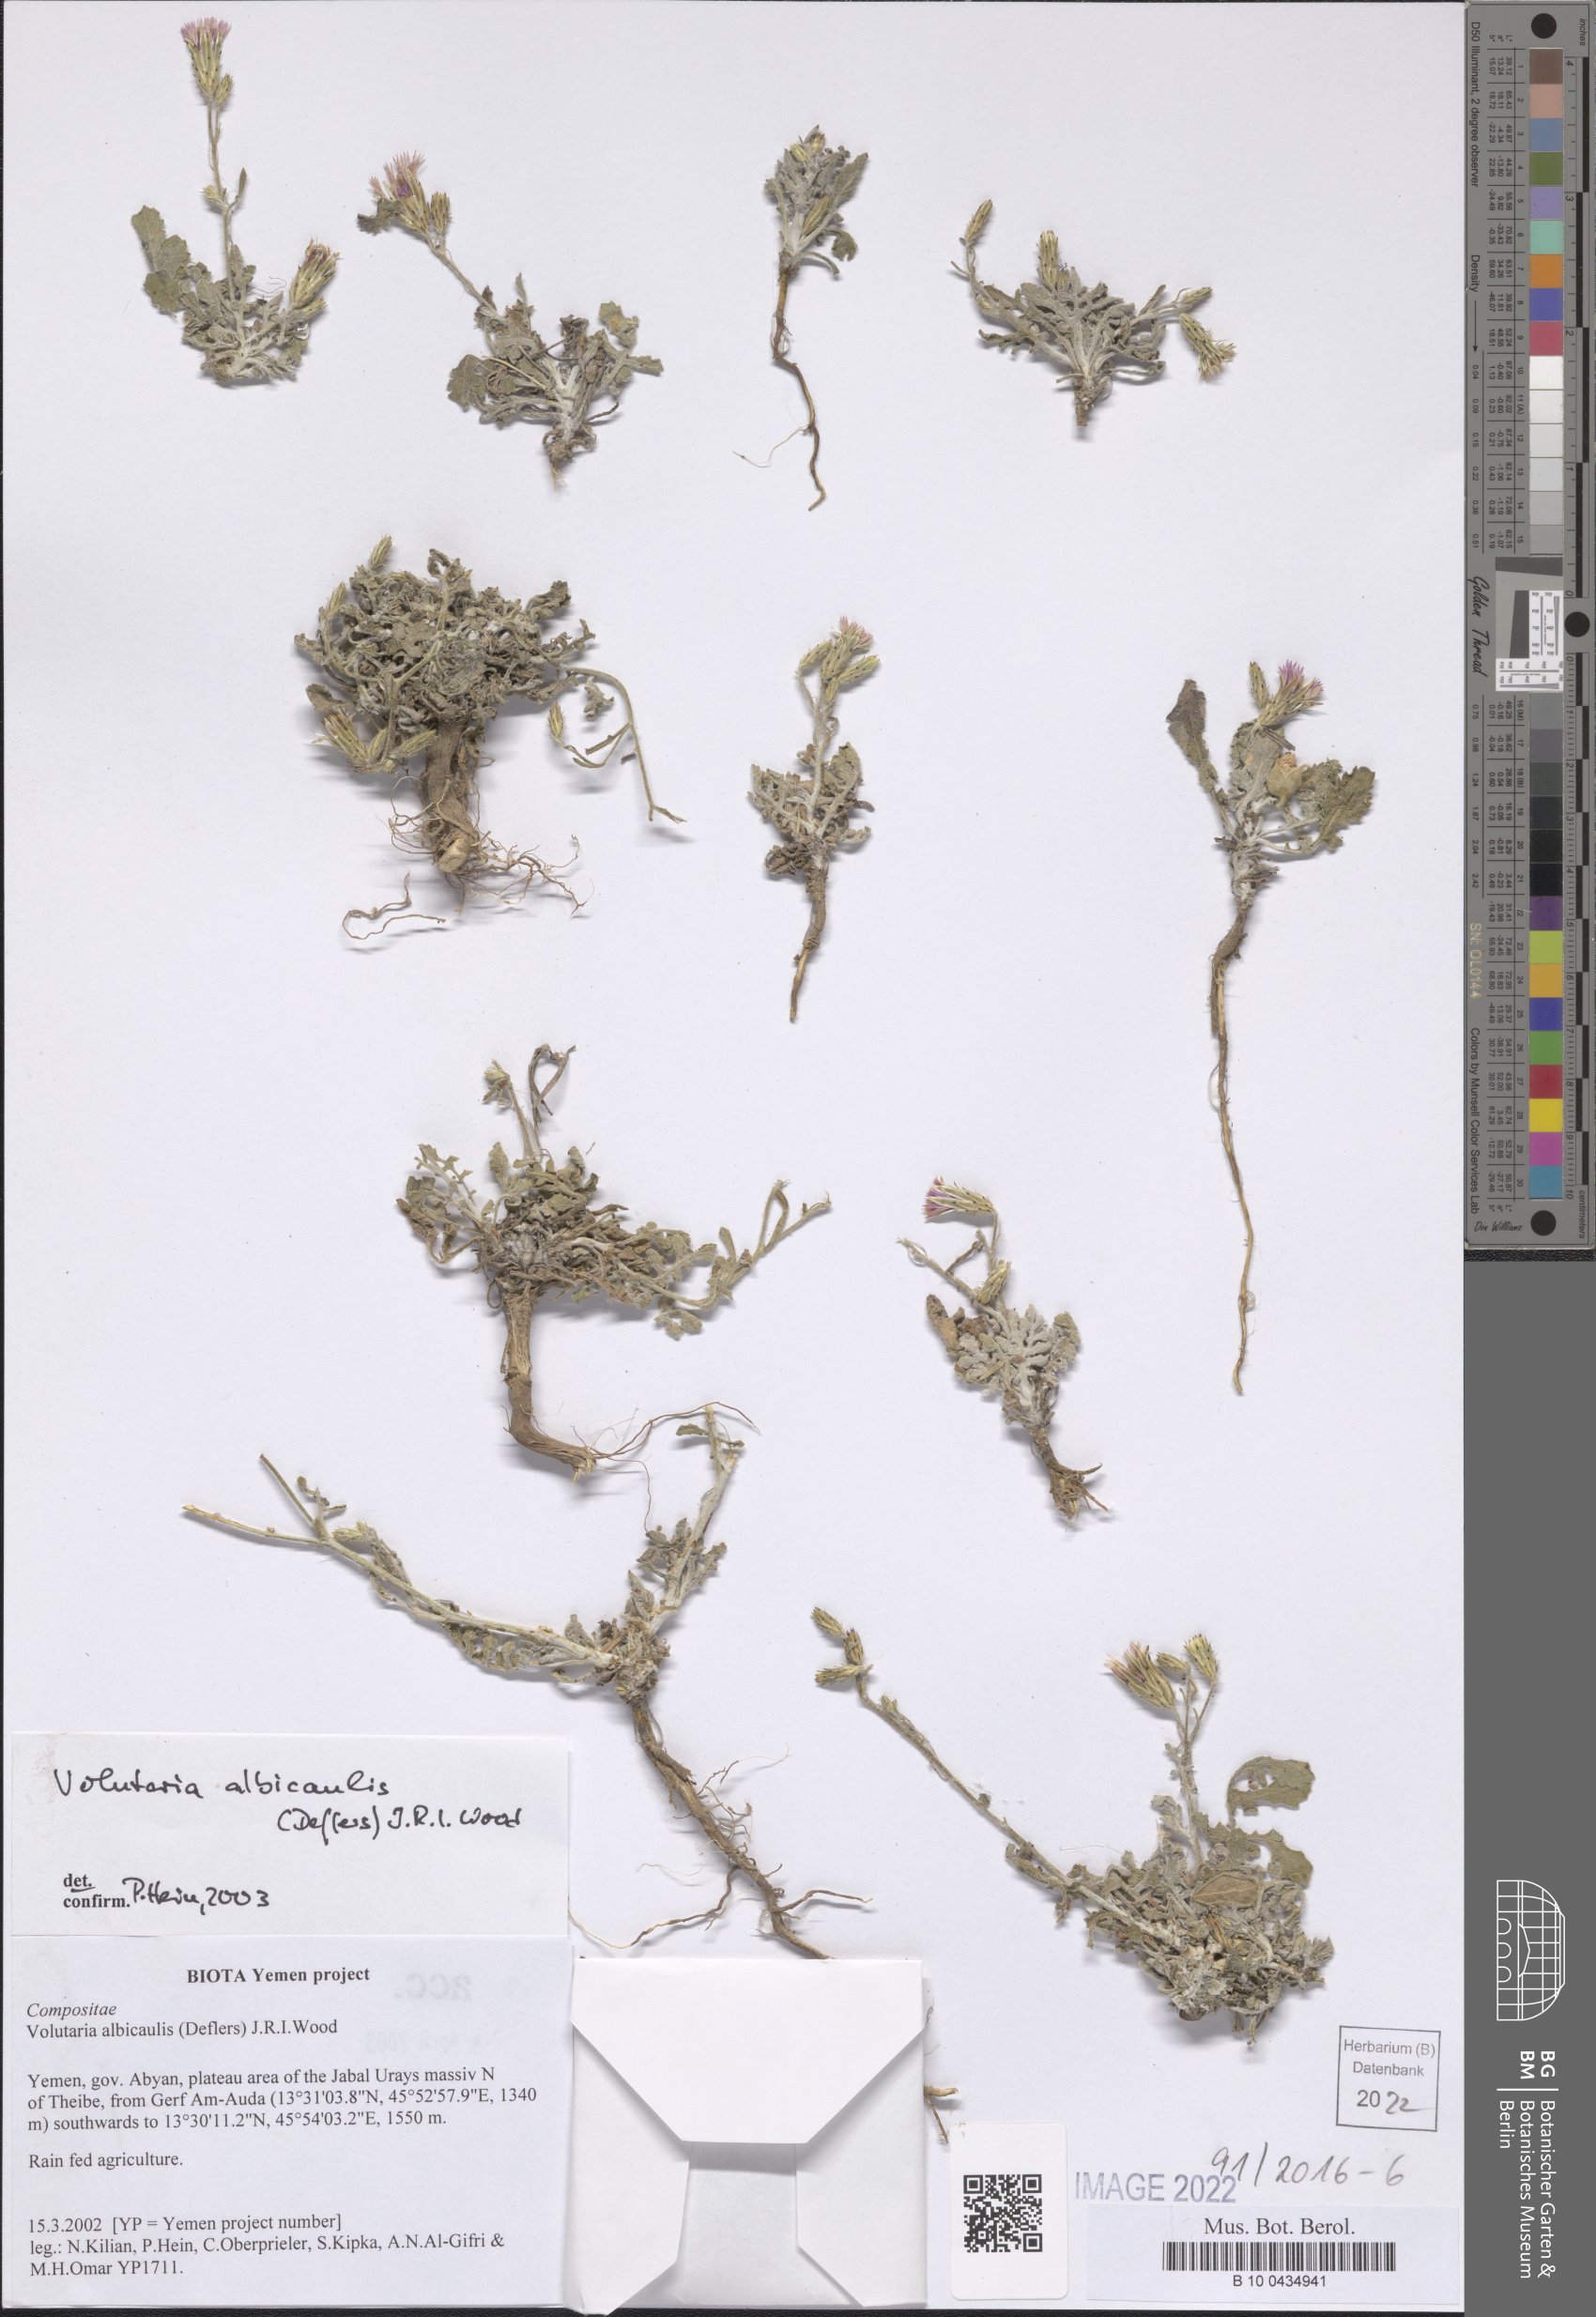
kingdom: Plantae
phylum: Tracheophyta
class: Magnoliopsida
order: Asterales
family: Asteraceae
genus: Volutaria
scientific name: Volutaria albicaulis
